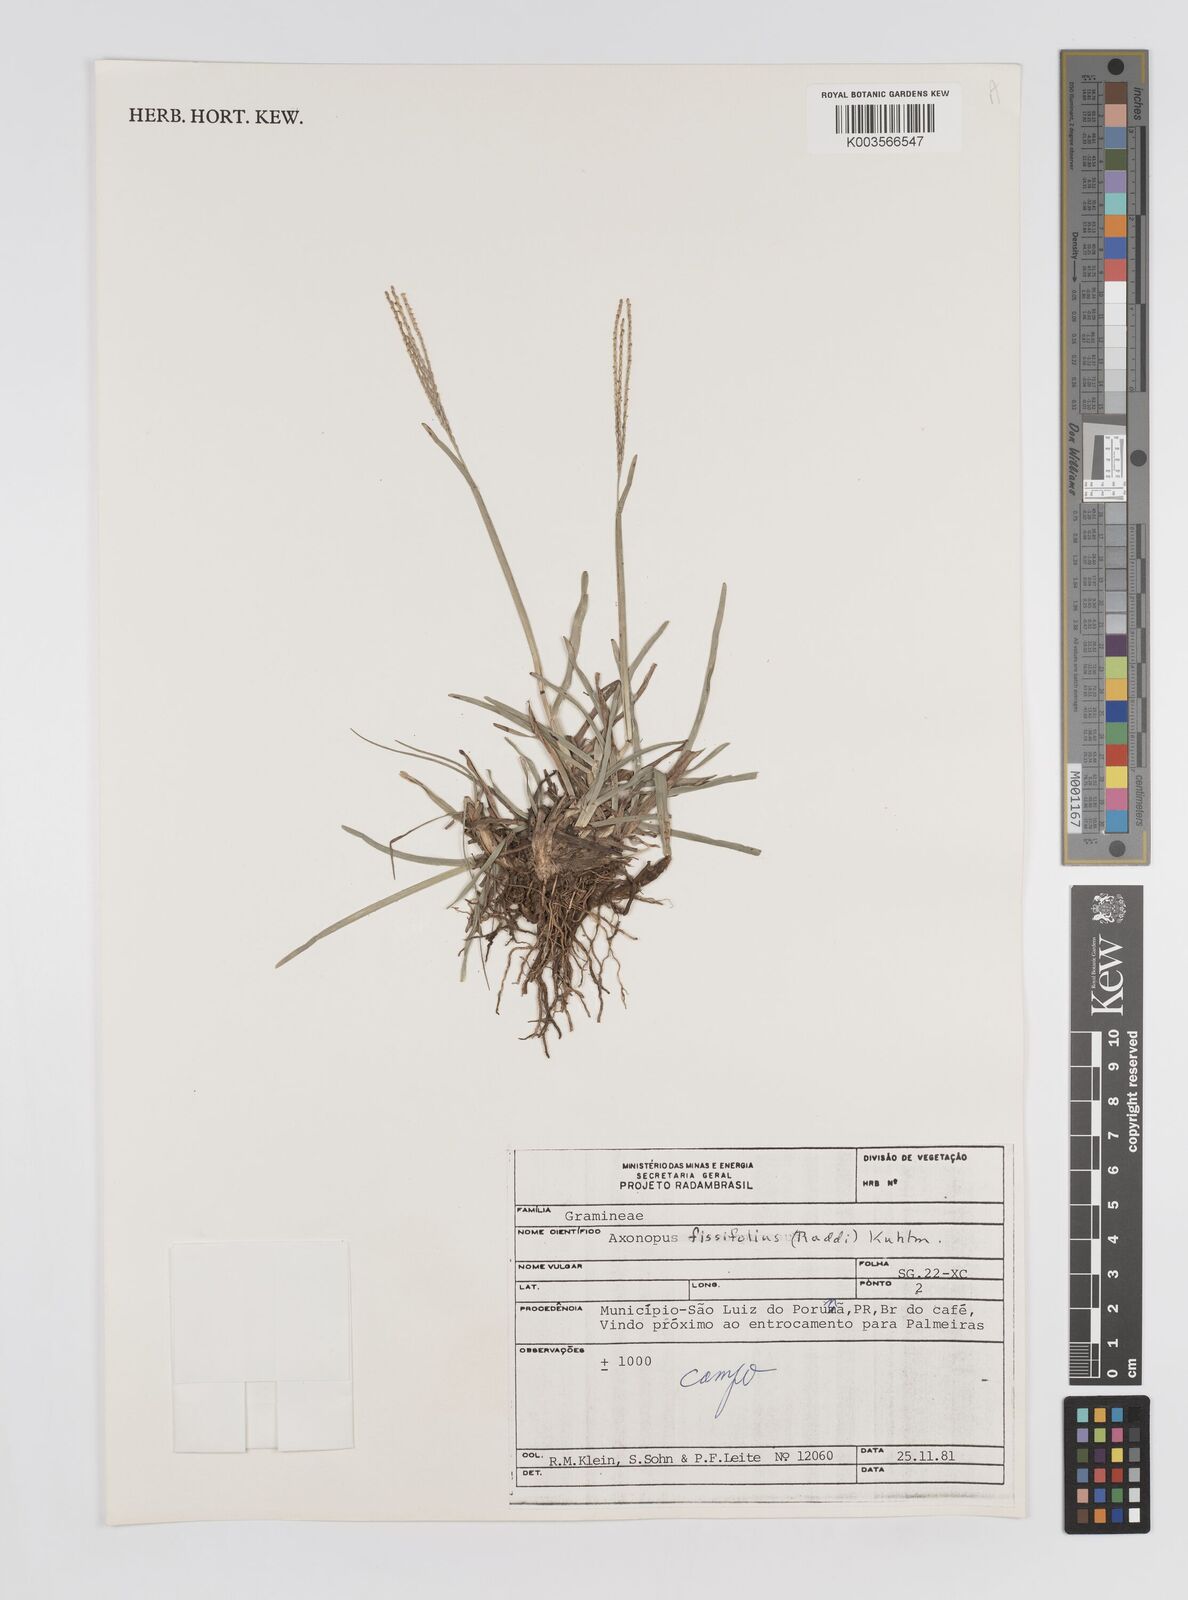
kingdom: Plantae
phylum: Tracheophyta
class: Liliopsida
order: Poales
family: Poaceae
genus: Axonopus
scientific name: Axonopus fissifolius
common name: Common carpetgrass
